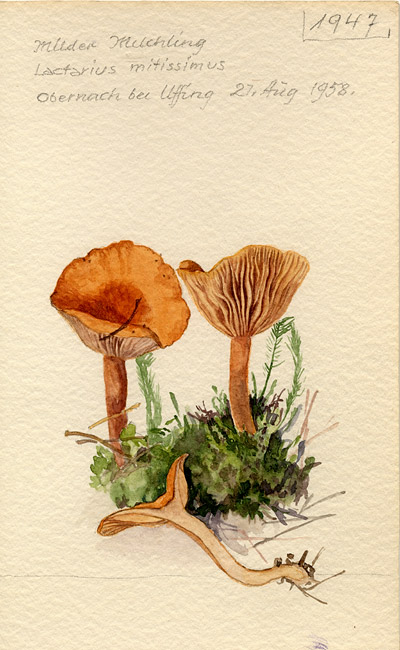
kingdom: Fungi
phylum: Basidiomycota
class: Agaricomycetes
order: Russulales
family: Russulaceae
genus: Lactarius
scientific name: Lactarius aurantiacus
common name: Orange milkcap
